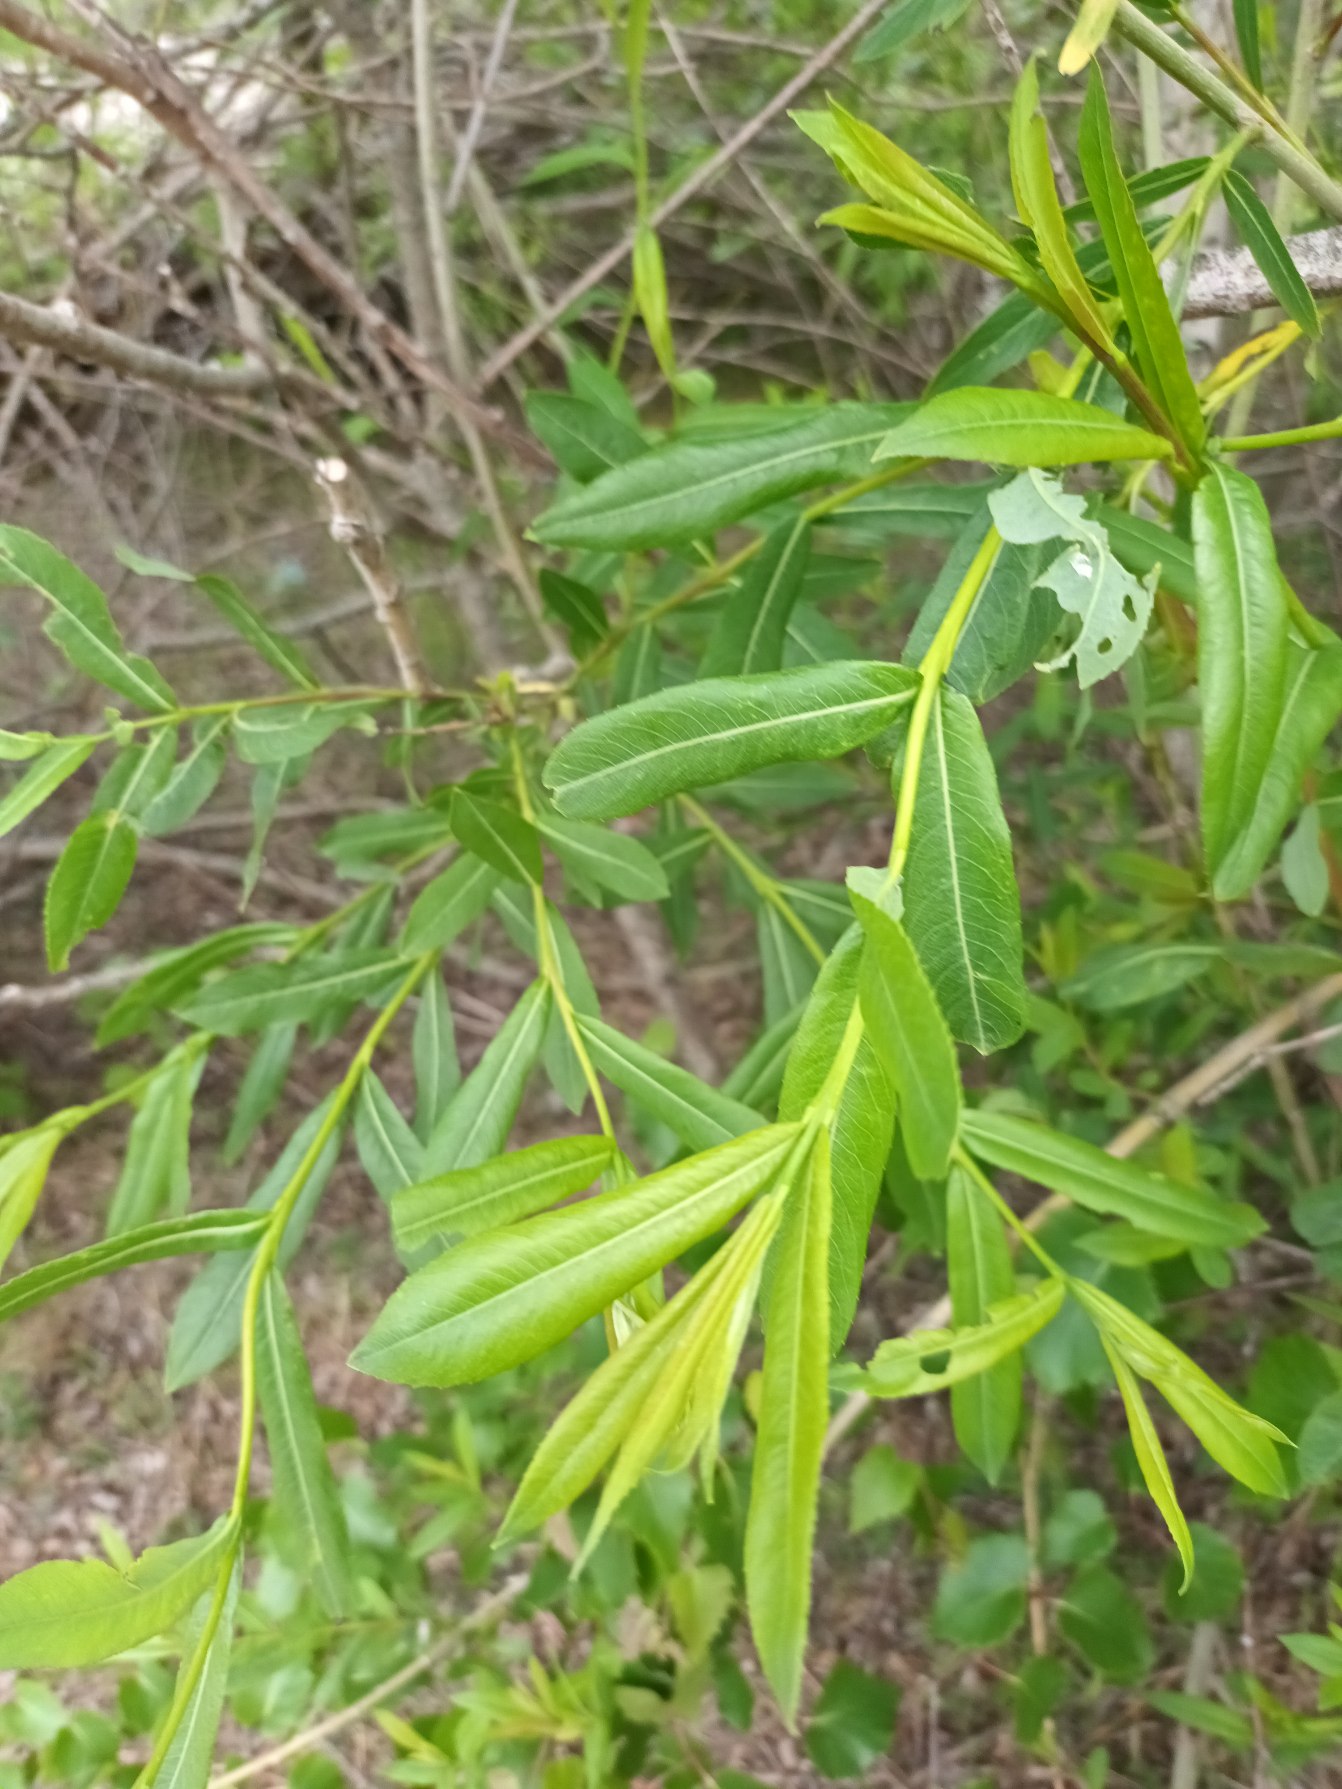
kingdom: Plantae
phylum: Tracheophyta
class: Magnoliopsida
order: Malpighiales
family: Salicaceae
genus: Salix
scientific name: Salix purpurea
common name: Purpur-pil
